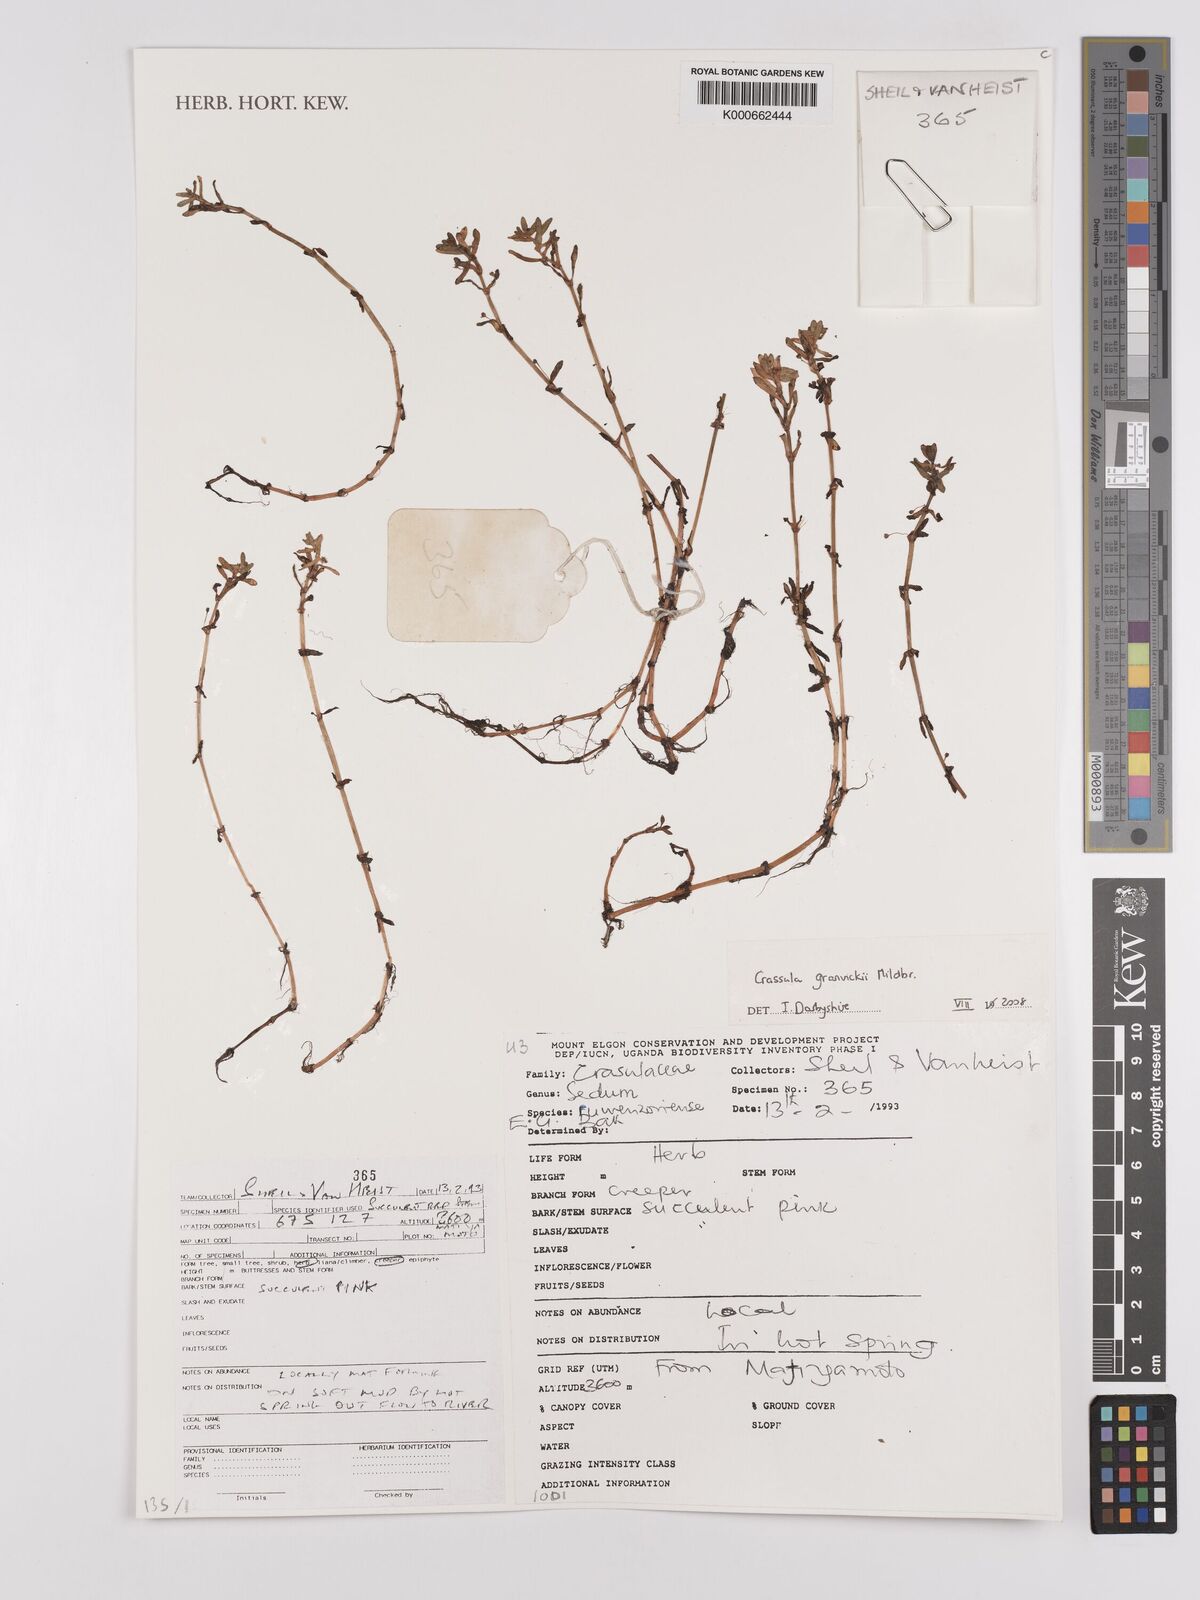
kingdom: Plantae
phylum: Tracheophyta
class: Magnoliopsida
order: Saxifragales
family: Crassulaceae
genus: Crassula
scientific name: Crassula granvikii
